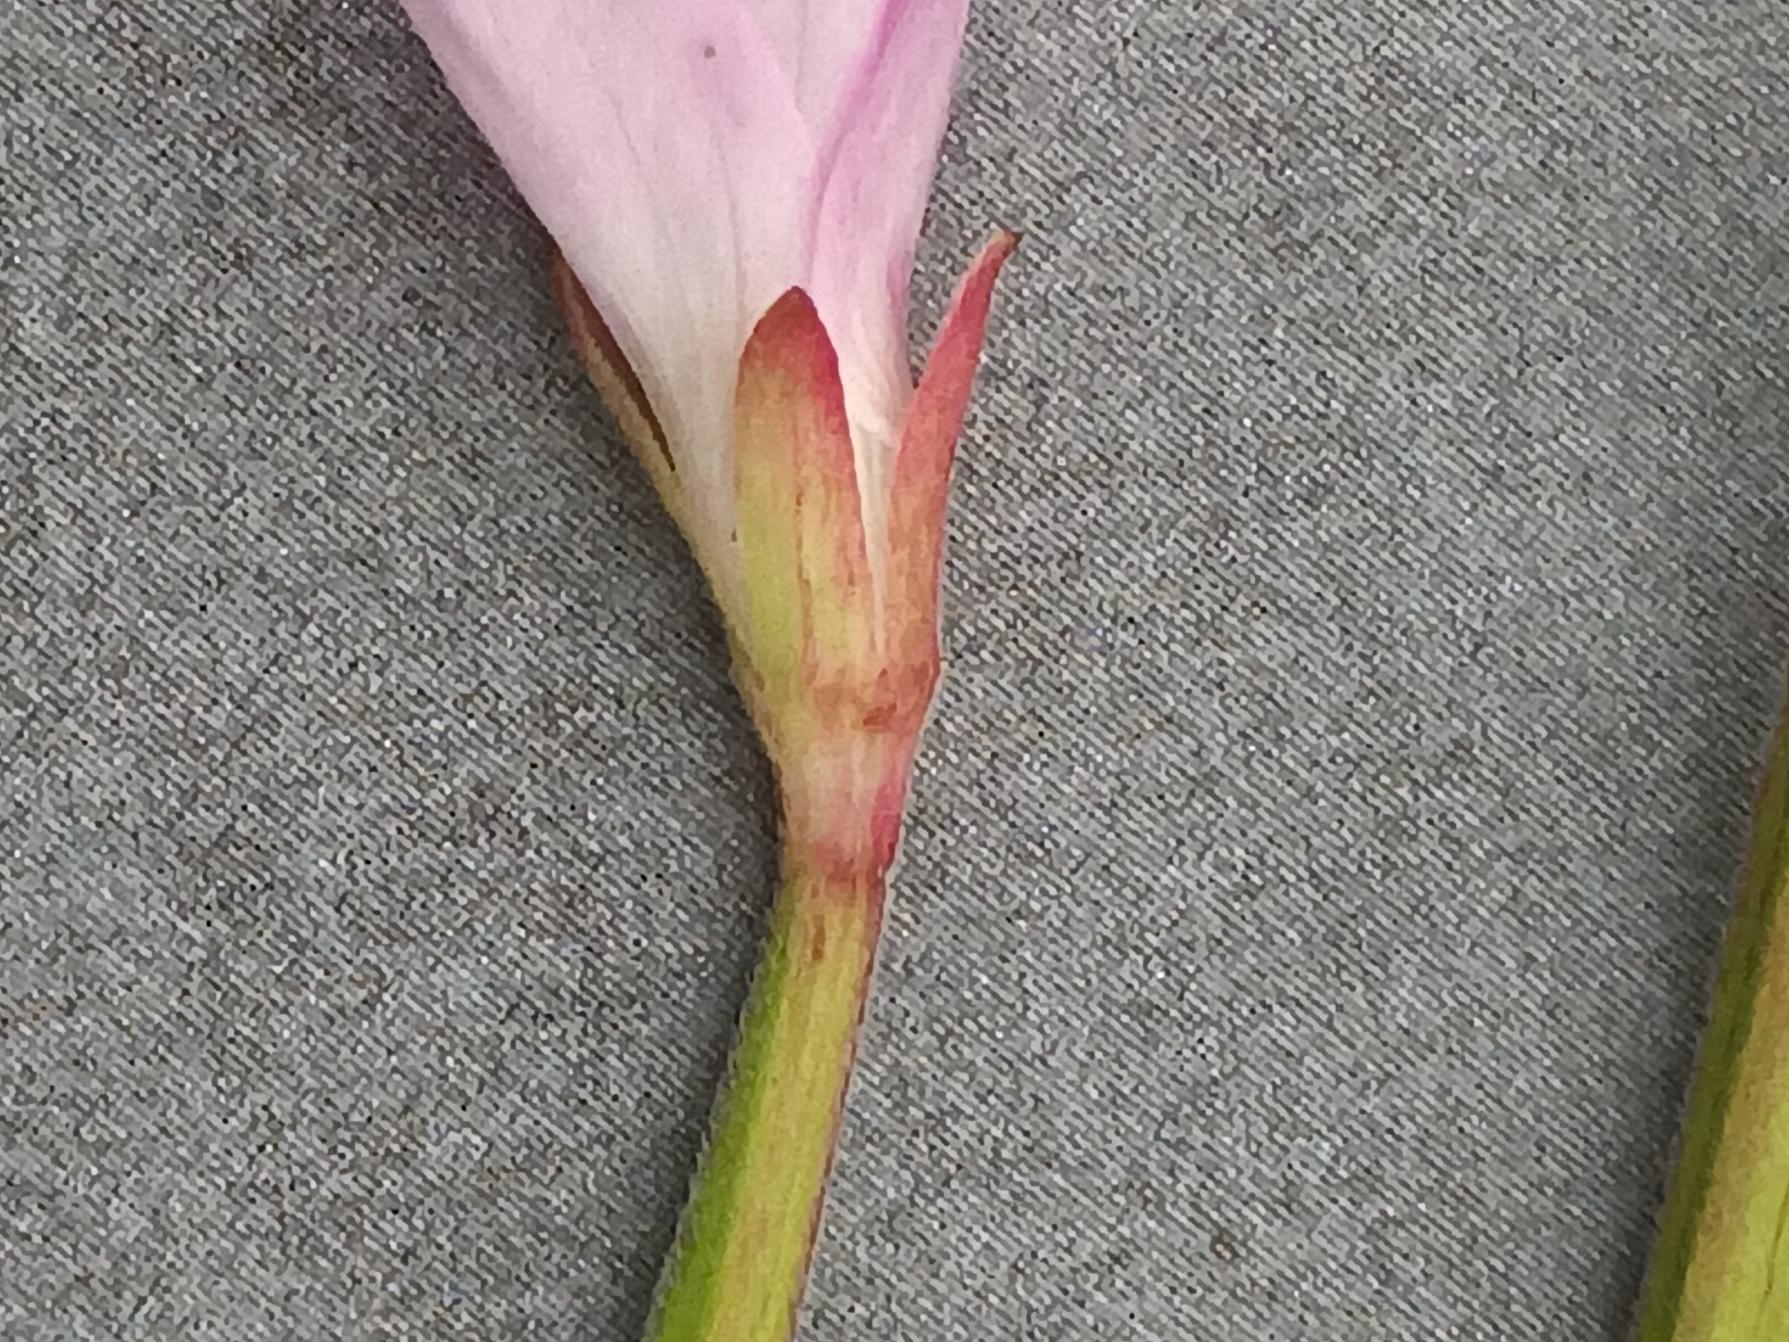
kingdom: Plantae
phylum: Tracheophyta
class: Magnoliopsida
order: Myrtales
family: Onagraceae
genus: Epilobium
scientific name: Epilobium lamyi
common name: Rank dueurt
